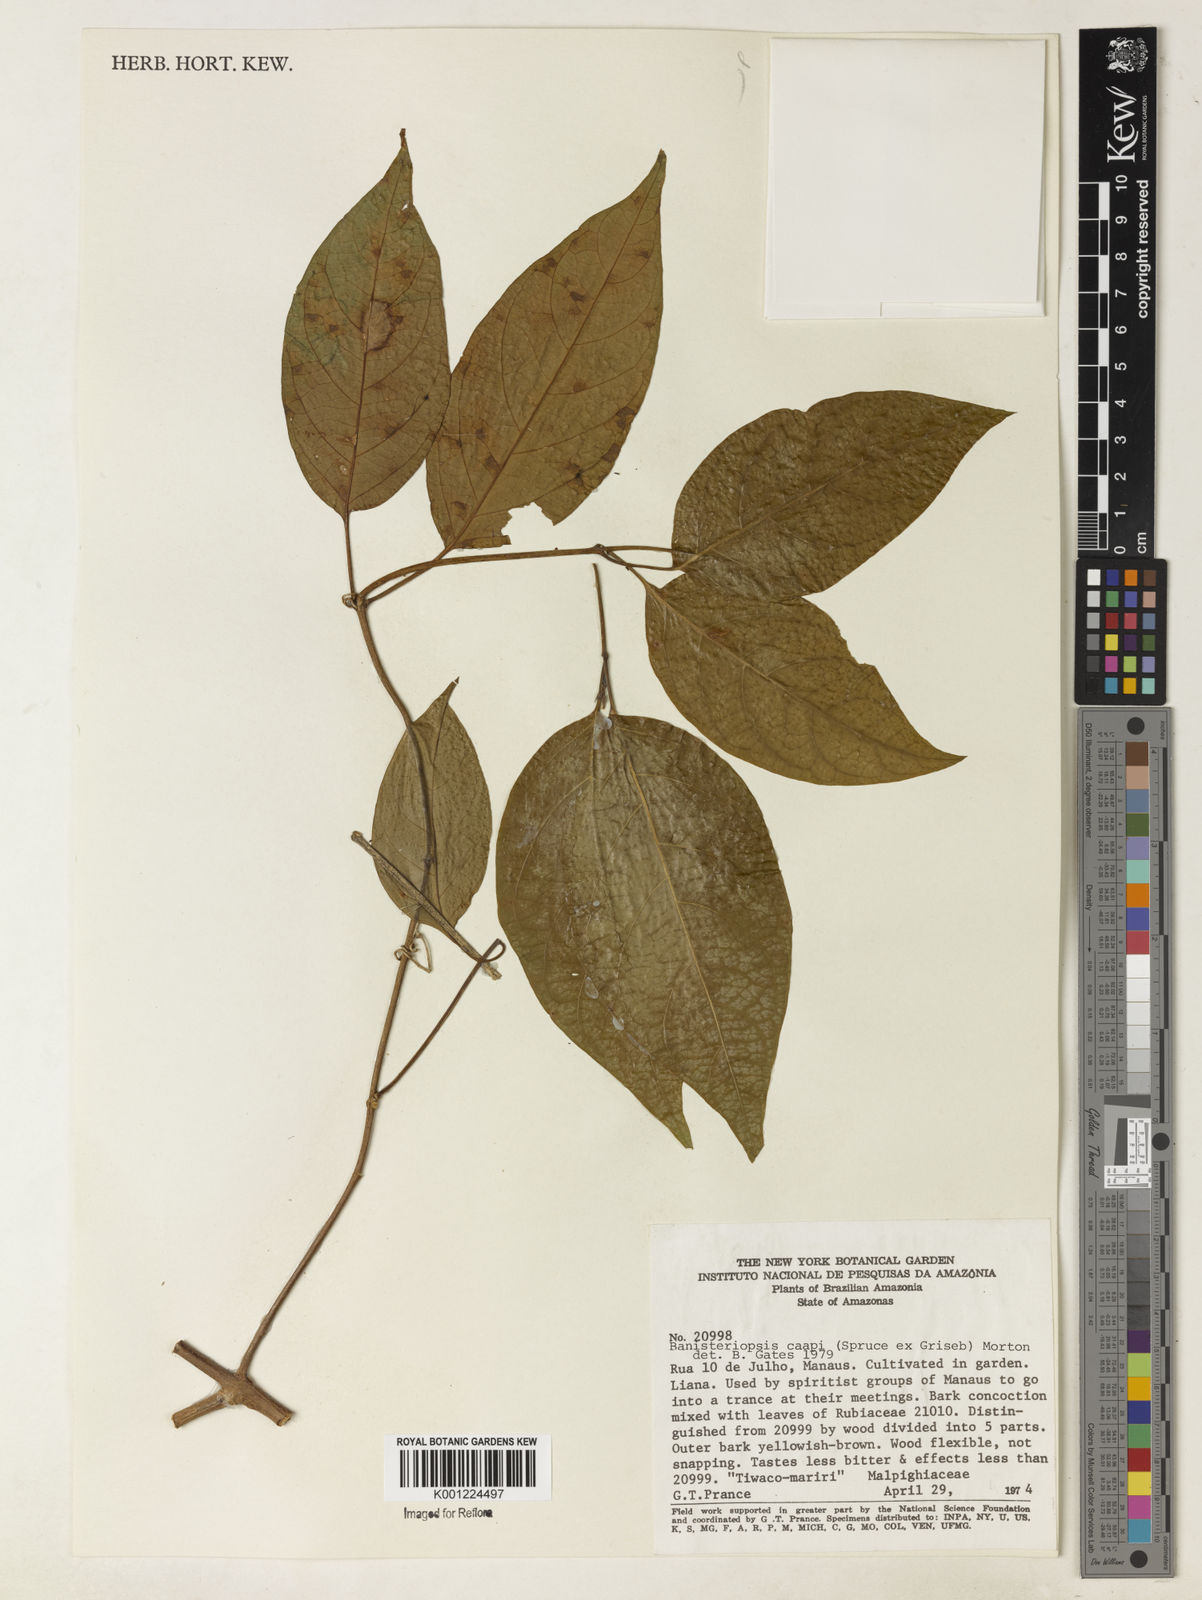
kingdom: Plantae
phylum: Tracheophyta
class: Magnoliopsida
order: Malpighiales
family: Malpighiaceae
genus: Banisteriopsis
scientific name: Banisteriopsis caapi
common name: Soulvine
